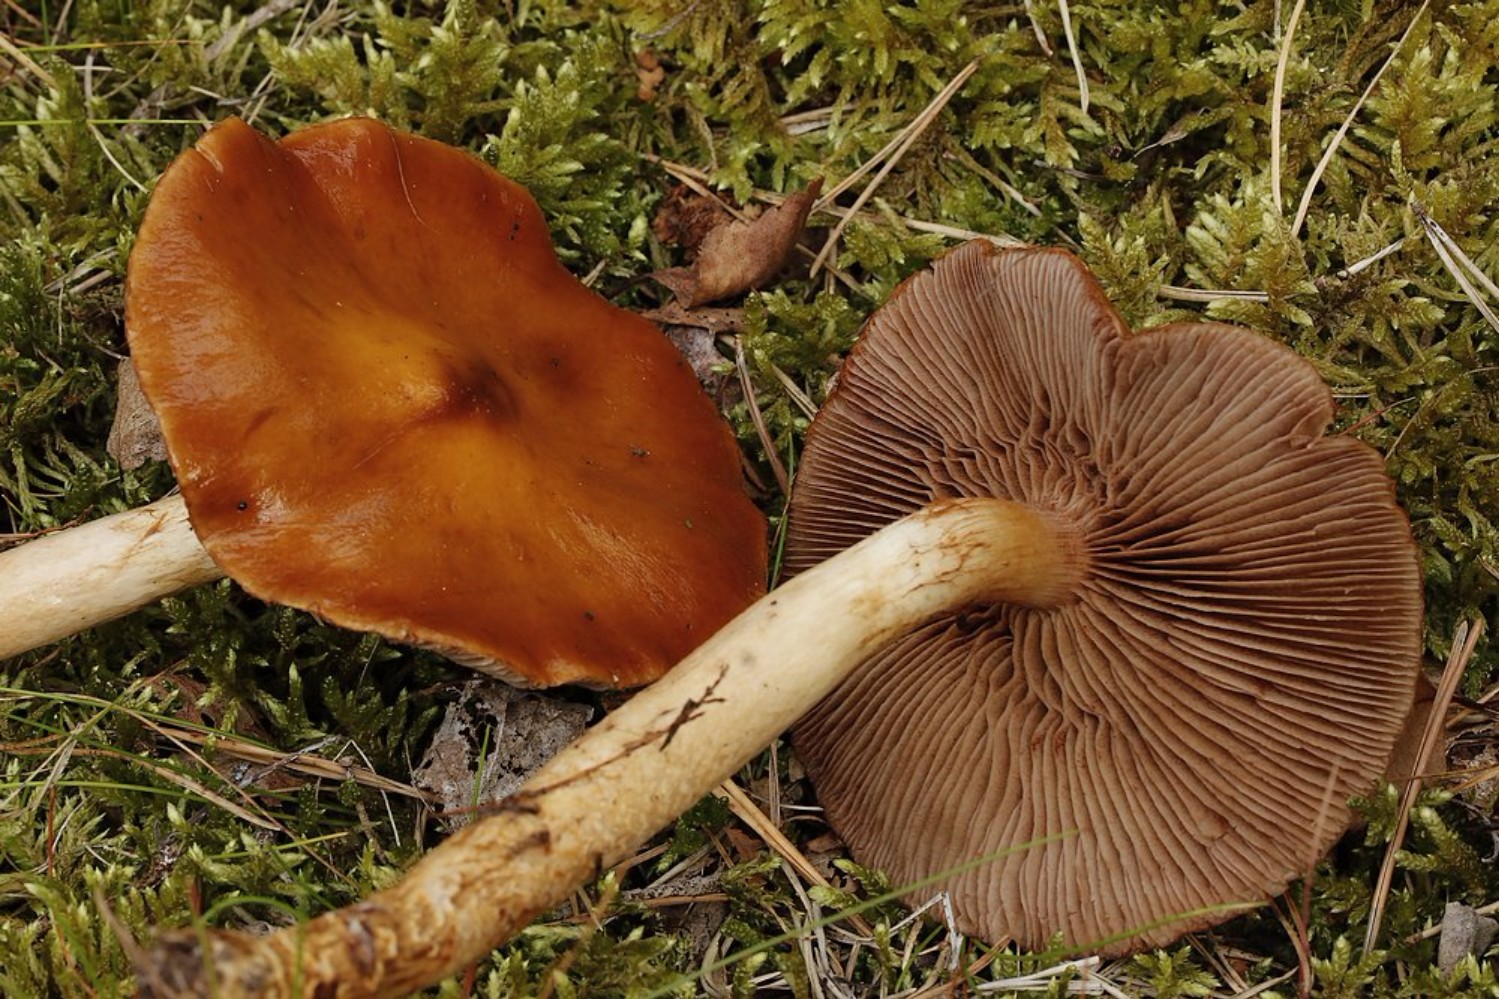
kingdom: Fungi
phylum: Basidiomycota
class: Agaricomycetes
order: Agaricales
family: Cortinariaceae
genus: Cortinarius
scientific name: Cortinarius collinitoides
